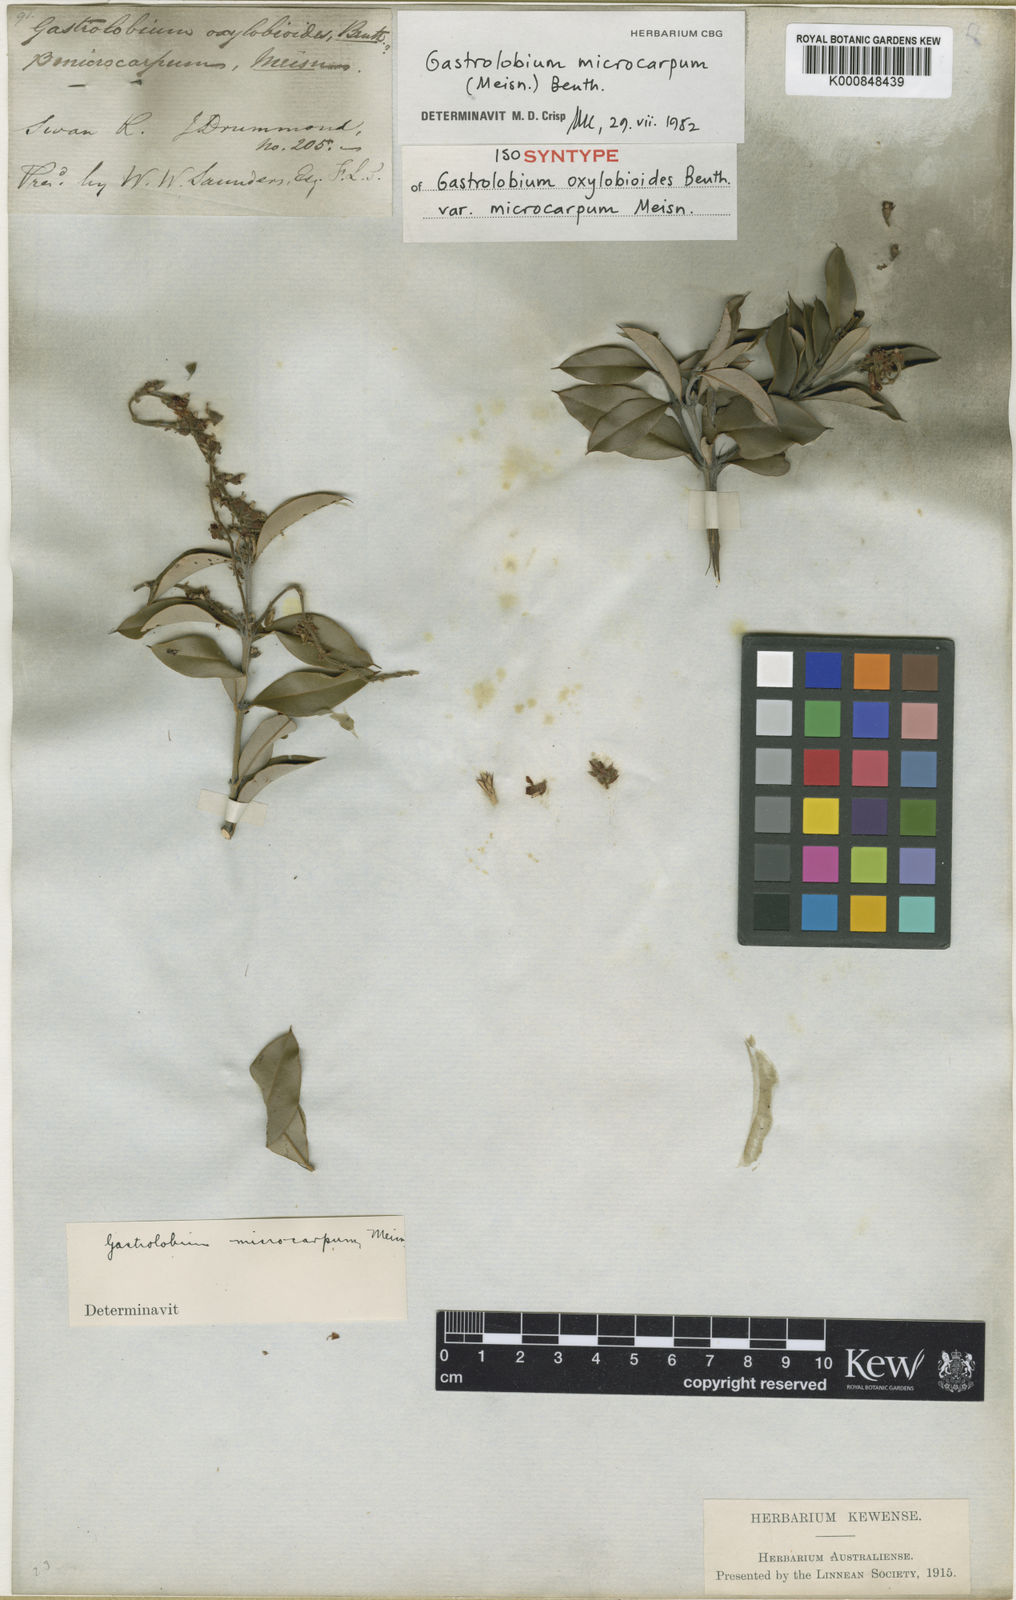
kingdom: Plantae
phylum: Tracheophyta
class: Magnoliopsida
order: Fabales
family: Fabaceae
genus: Gastrolobium
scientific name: Gastrolobium
